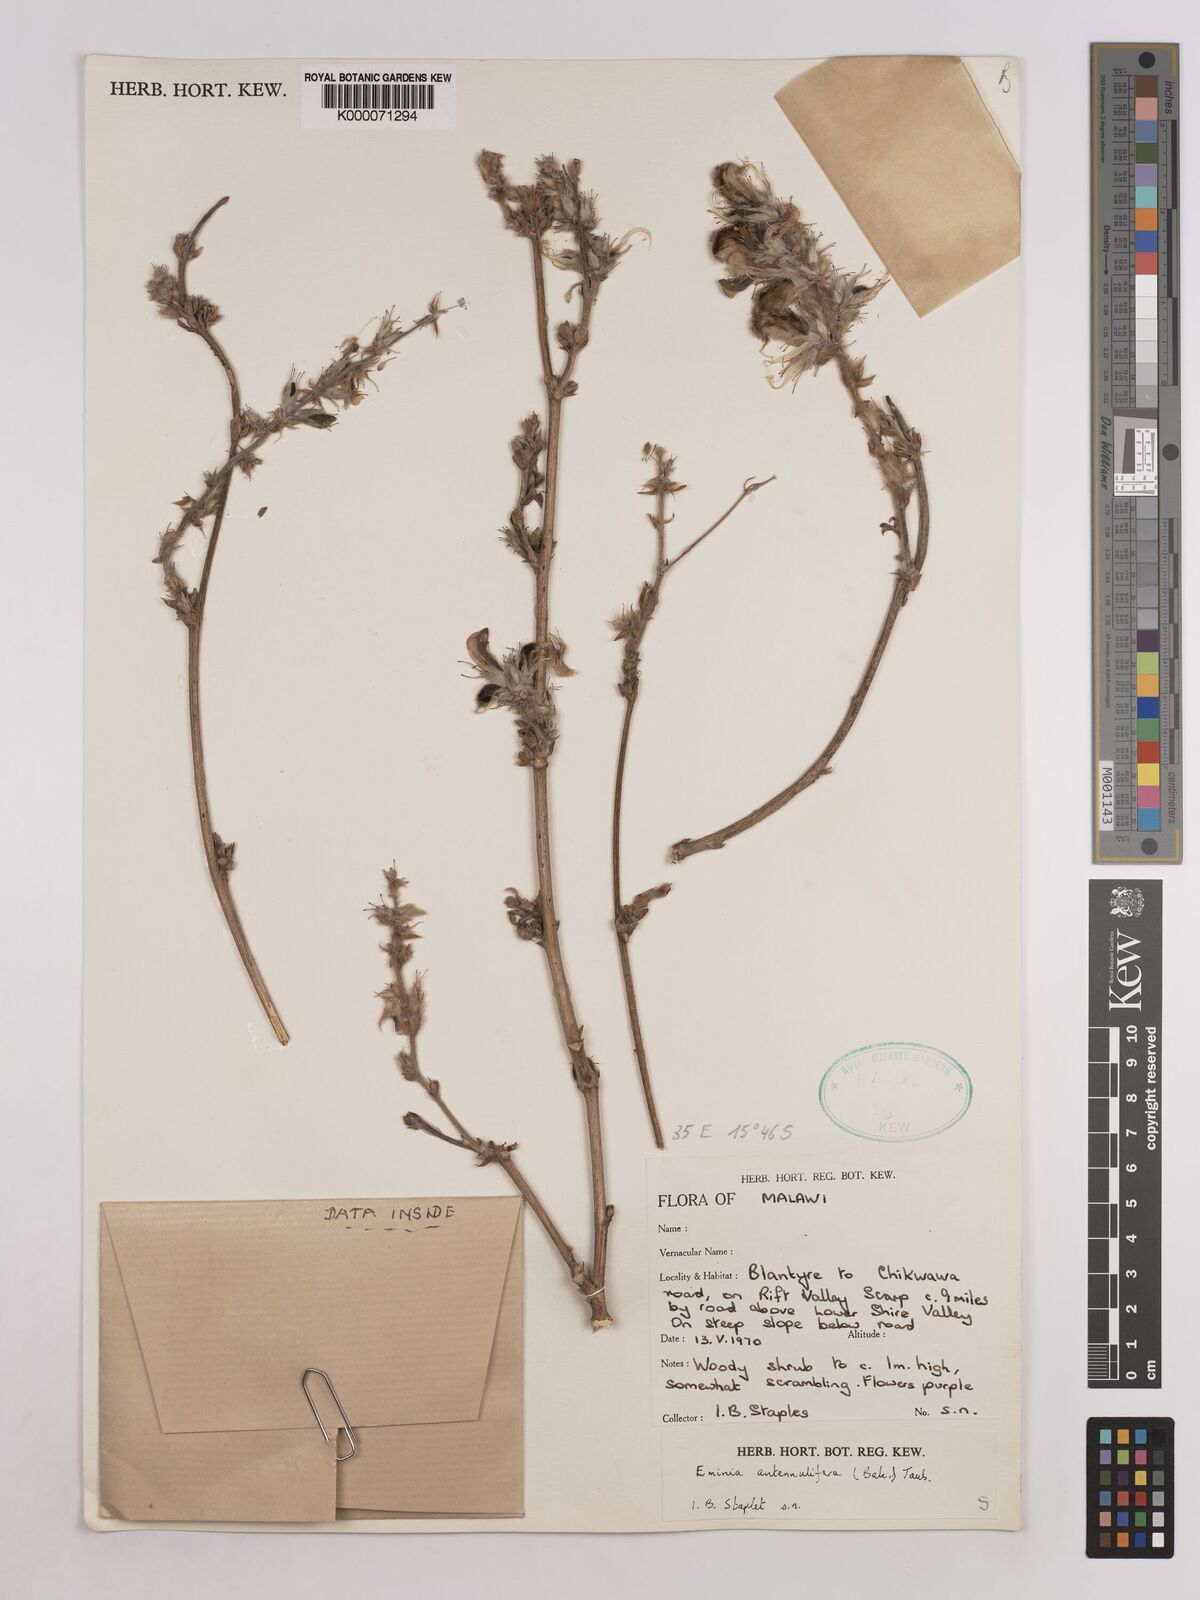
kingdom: Plantae
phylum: Tracheophyta
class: Magnoliopsida
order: Fabales
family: Fabaceae
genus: Eminia
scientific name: Eminia antennulifera
